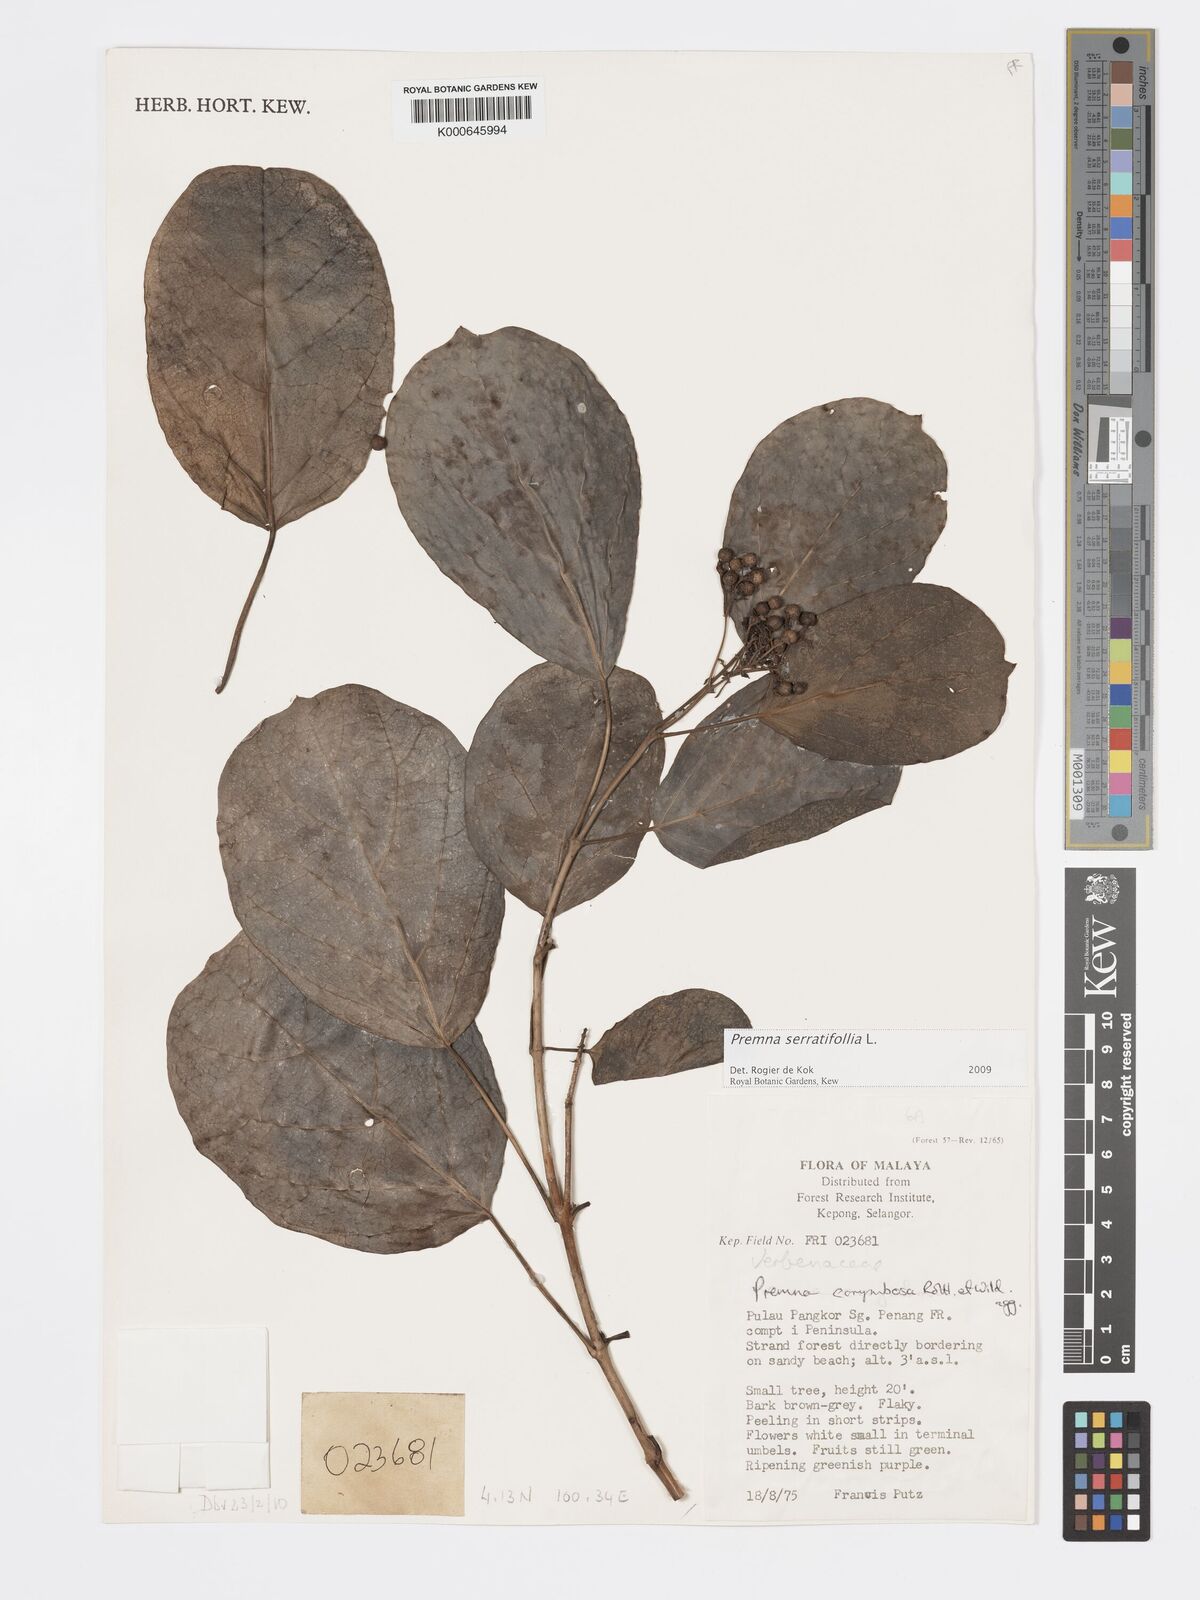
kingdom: Plantae
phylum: Tracheophyta
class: Magnoliopsida
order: Lamiales
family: Lamiaceae
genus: Premna
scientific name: Premna serratifolia
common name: Bastard guelder
